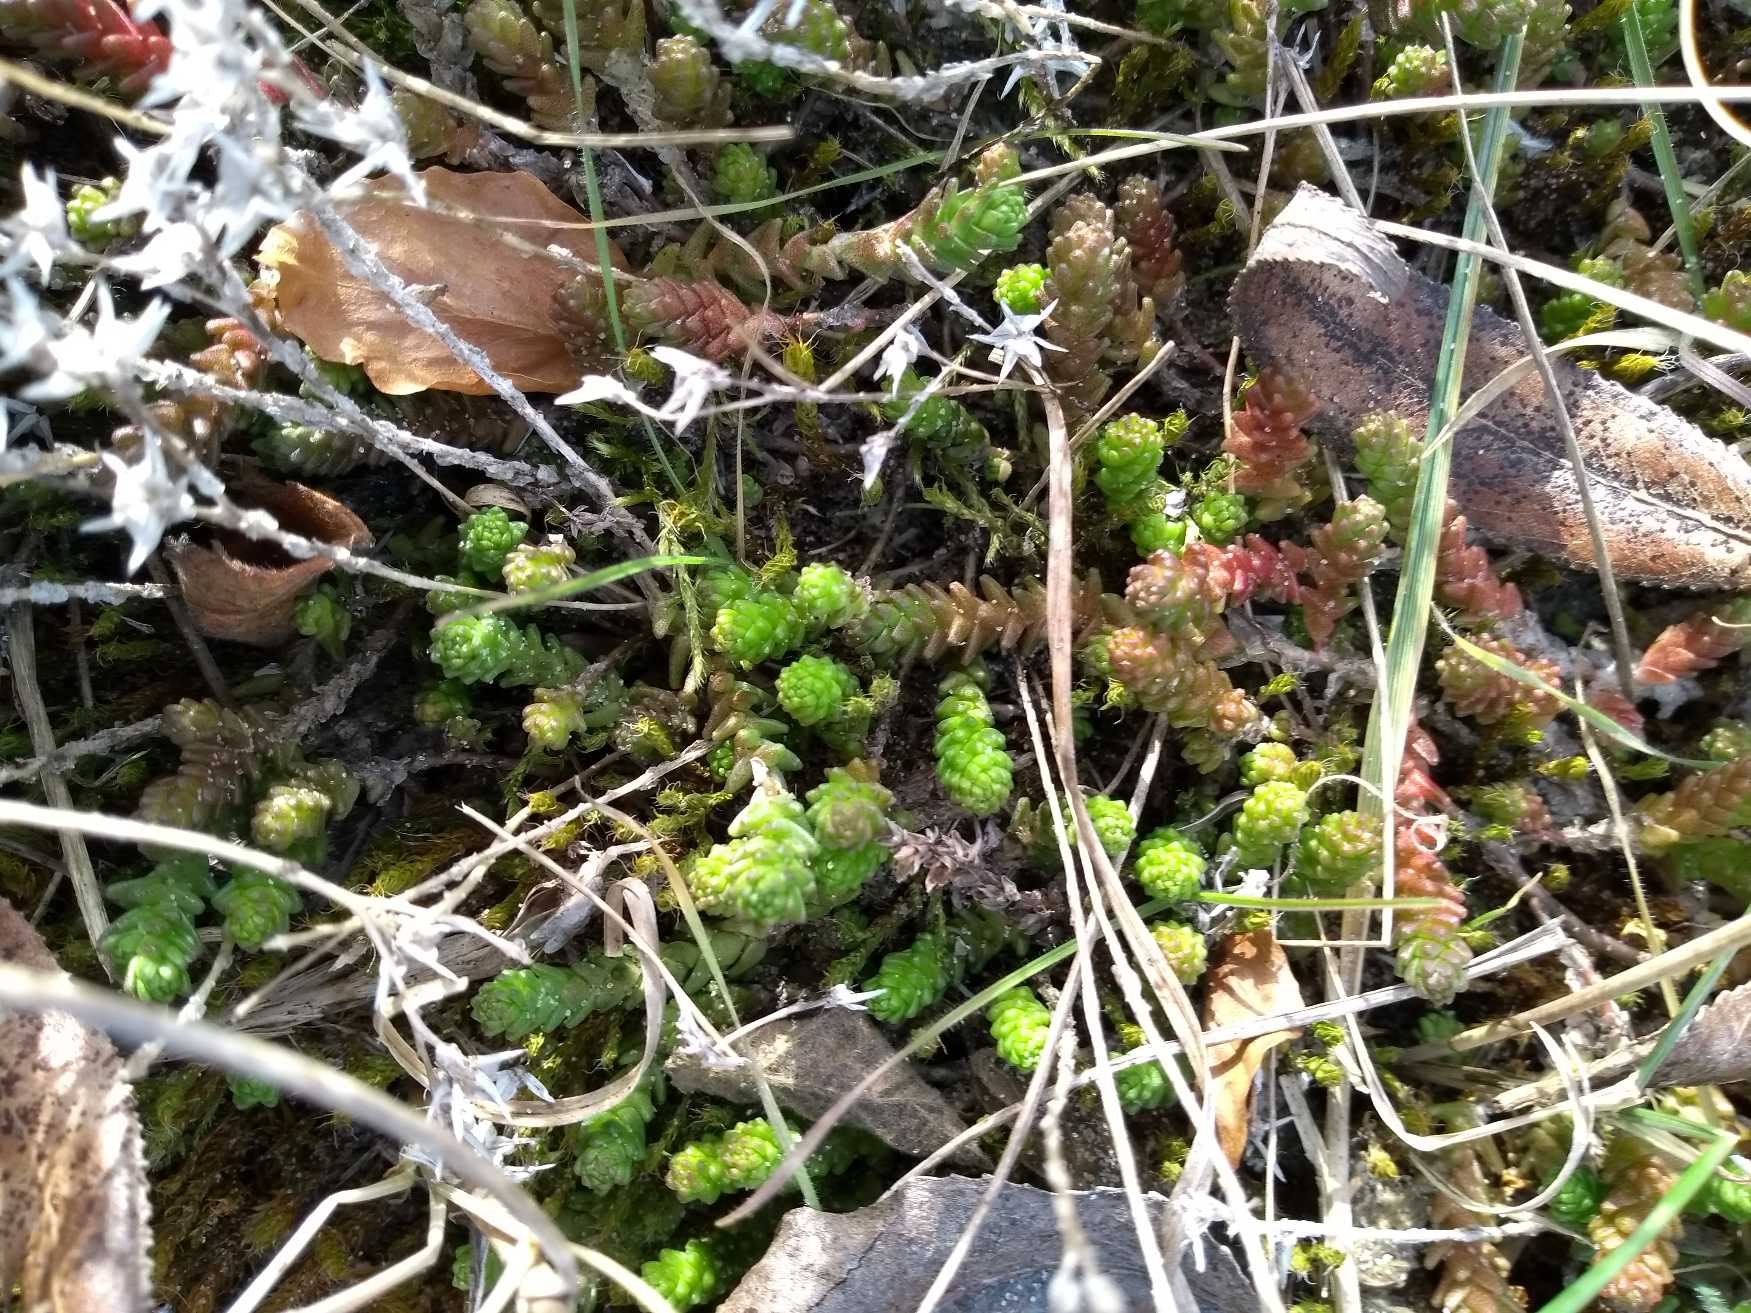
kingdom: Plantae
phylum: Tracheophyta
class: Magnoliopsida
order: Saxifragales
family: Crassulaceae
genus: Sedum
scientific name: Sedum acre
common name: Bidende stenurt
